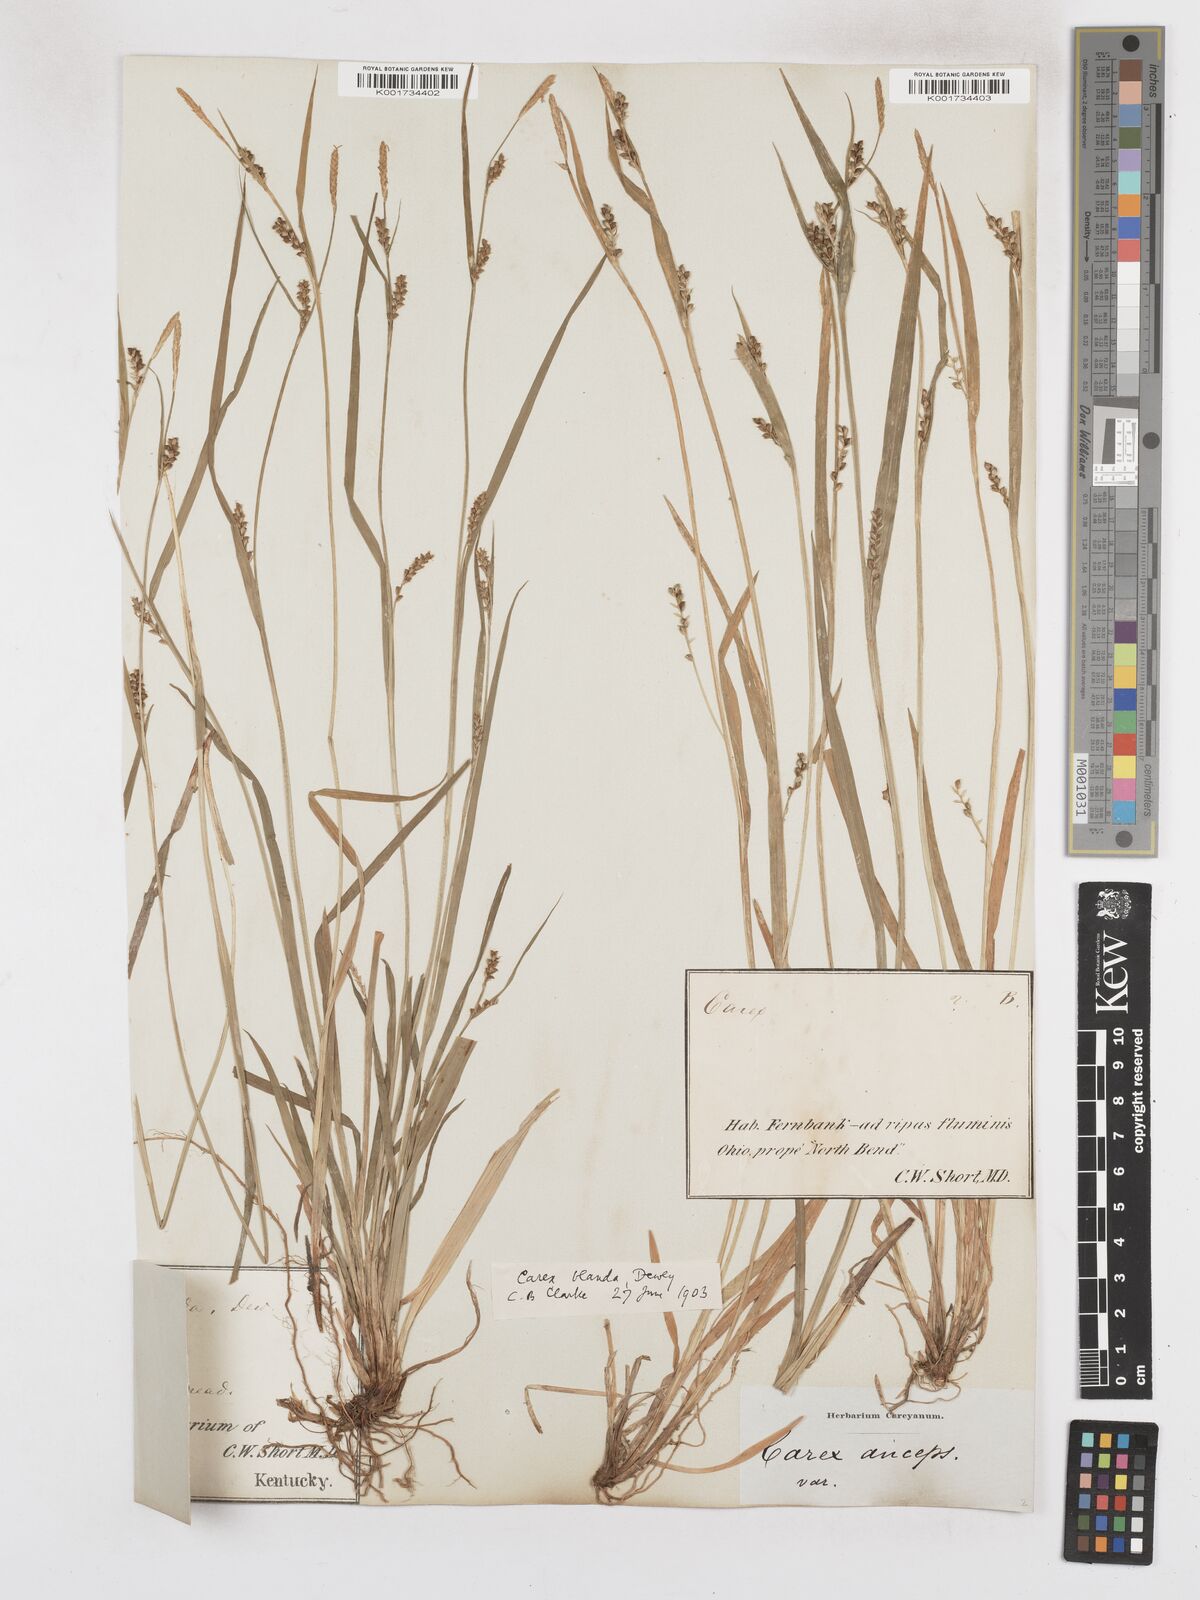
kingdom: Plantae
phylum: Tracheophyta
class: Liliopsida
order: Poales
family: Cyperaceae
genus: Carex
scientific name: Carex blanda
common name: Bland sedge
